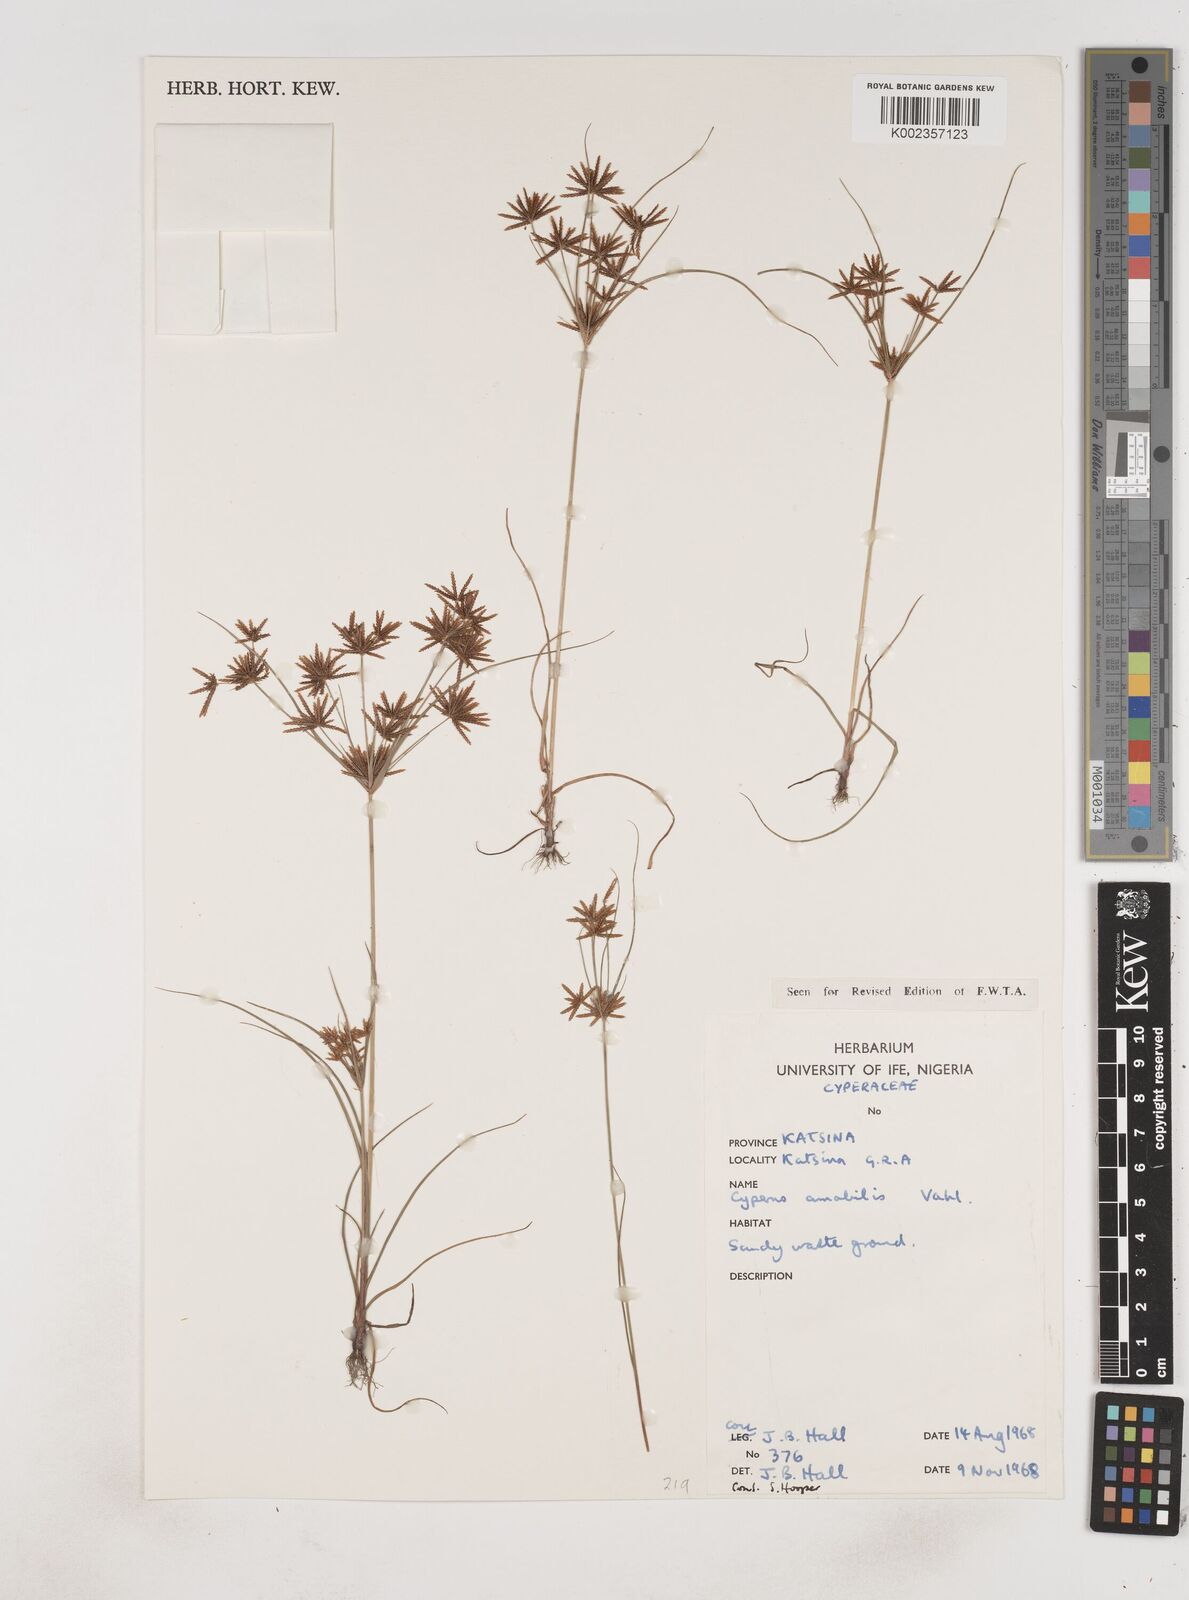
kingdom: Plantae
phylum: Tracheophyta
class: Liliopsida
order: Poales
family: Cyperaceae
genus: Cyperus
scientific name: Cyperus amabilis
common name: Foothill flat sedge
